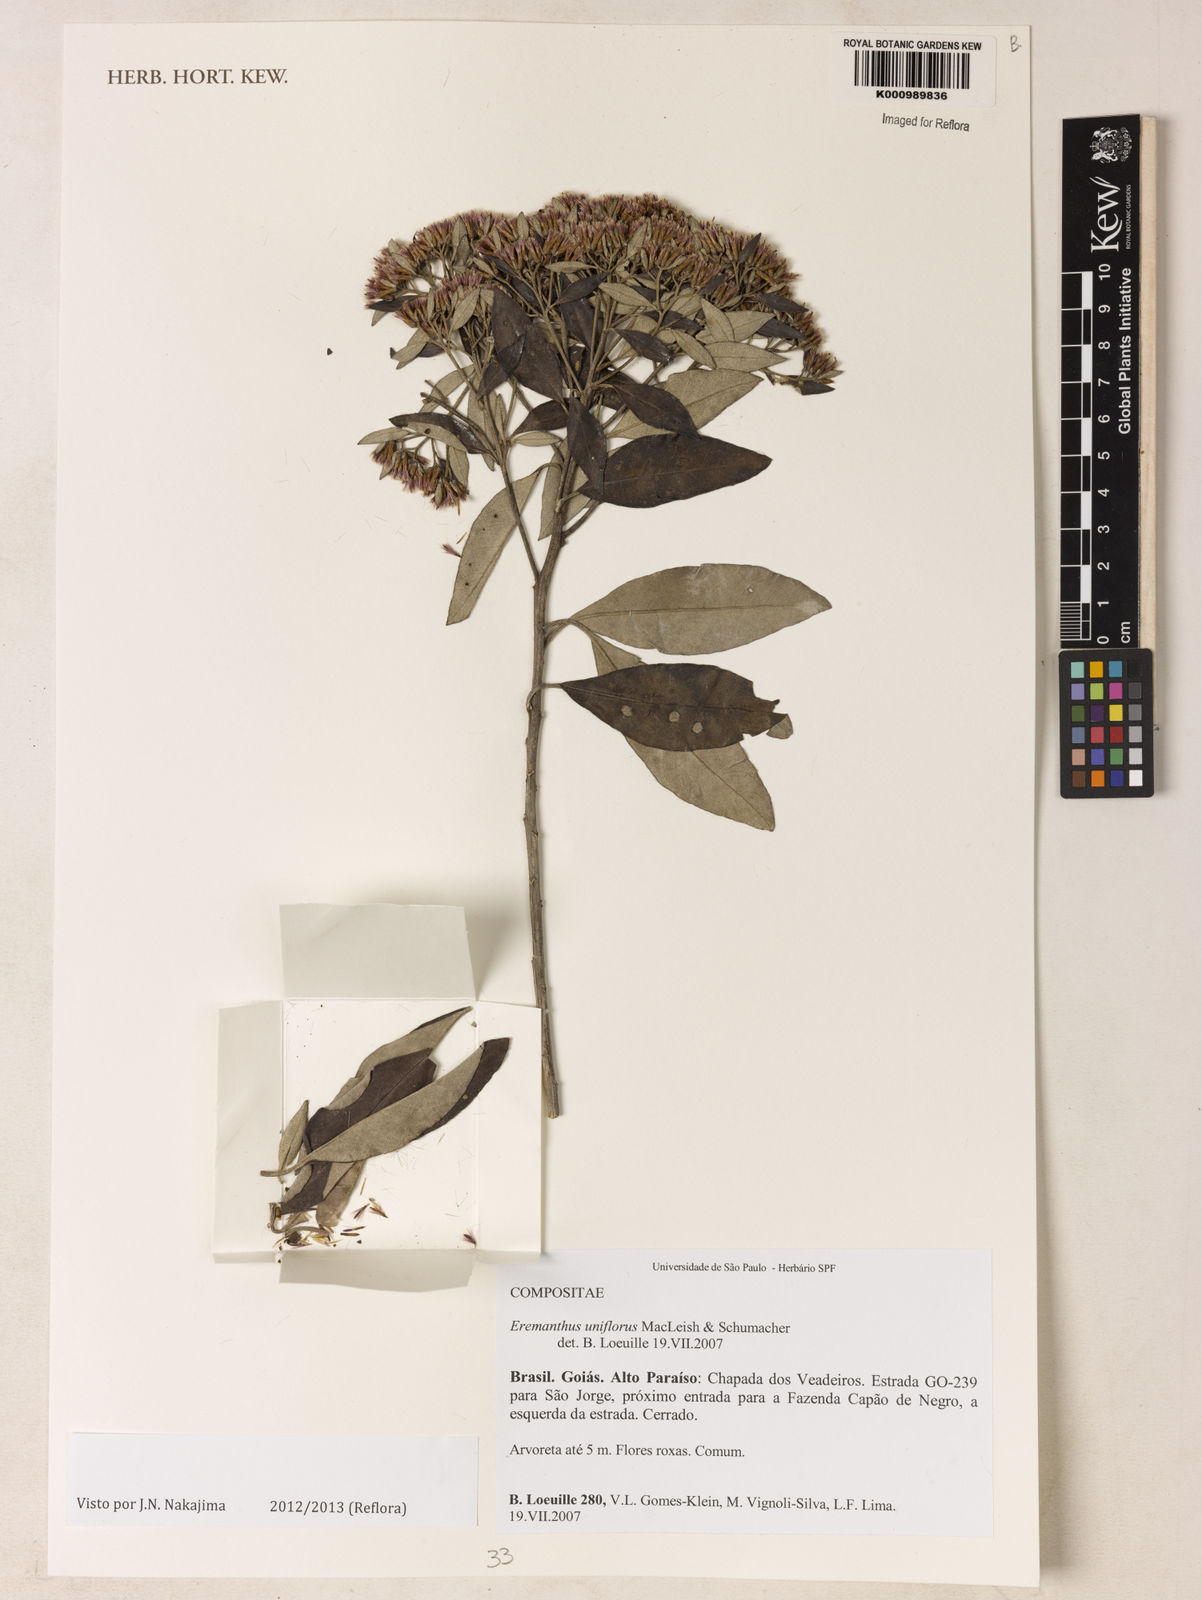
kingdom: Plantae
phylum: Tracheophyta
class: Magnoliopsida
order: Asterales
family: Asteraceae
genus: Eremanthus
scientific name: Eremanthus uniflorus
